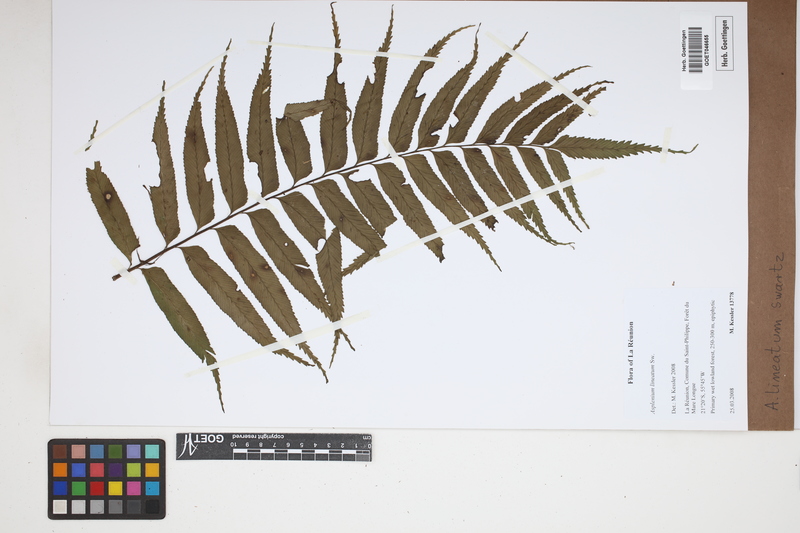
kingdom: Plantae
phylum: Tracheophyta
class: Polypodiopsida
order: Polypodiales
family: Aspleniaceae
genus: Asplenium
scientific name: Asplenium daucifolium
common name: Mauritius spleenwort
